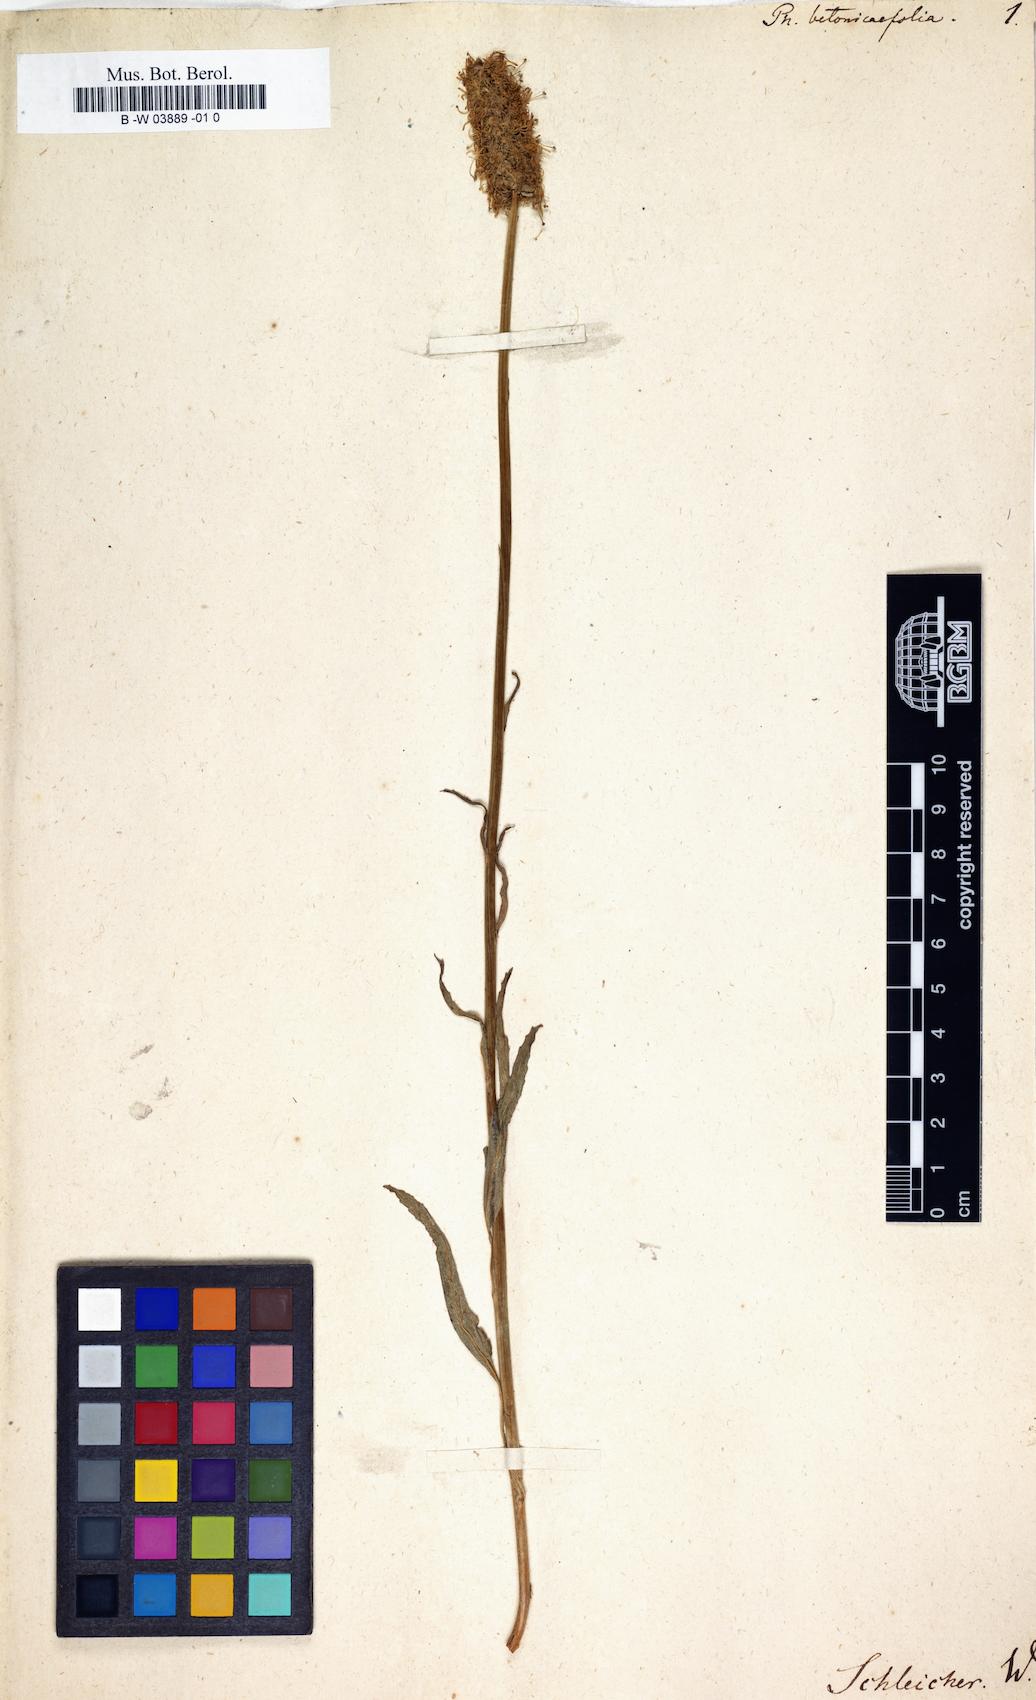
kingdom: Plantae
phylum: Tracheophyta
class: Magnoliopsida
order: Asterales
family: Campanulaceae
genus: Phyteuma
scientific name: Phyteuma betonicifolium
